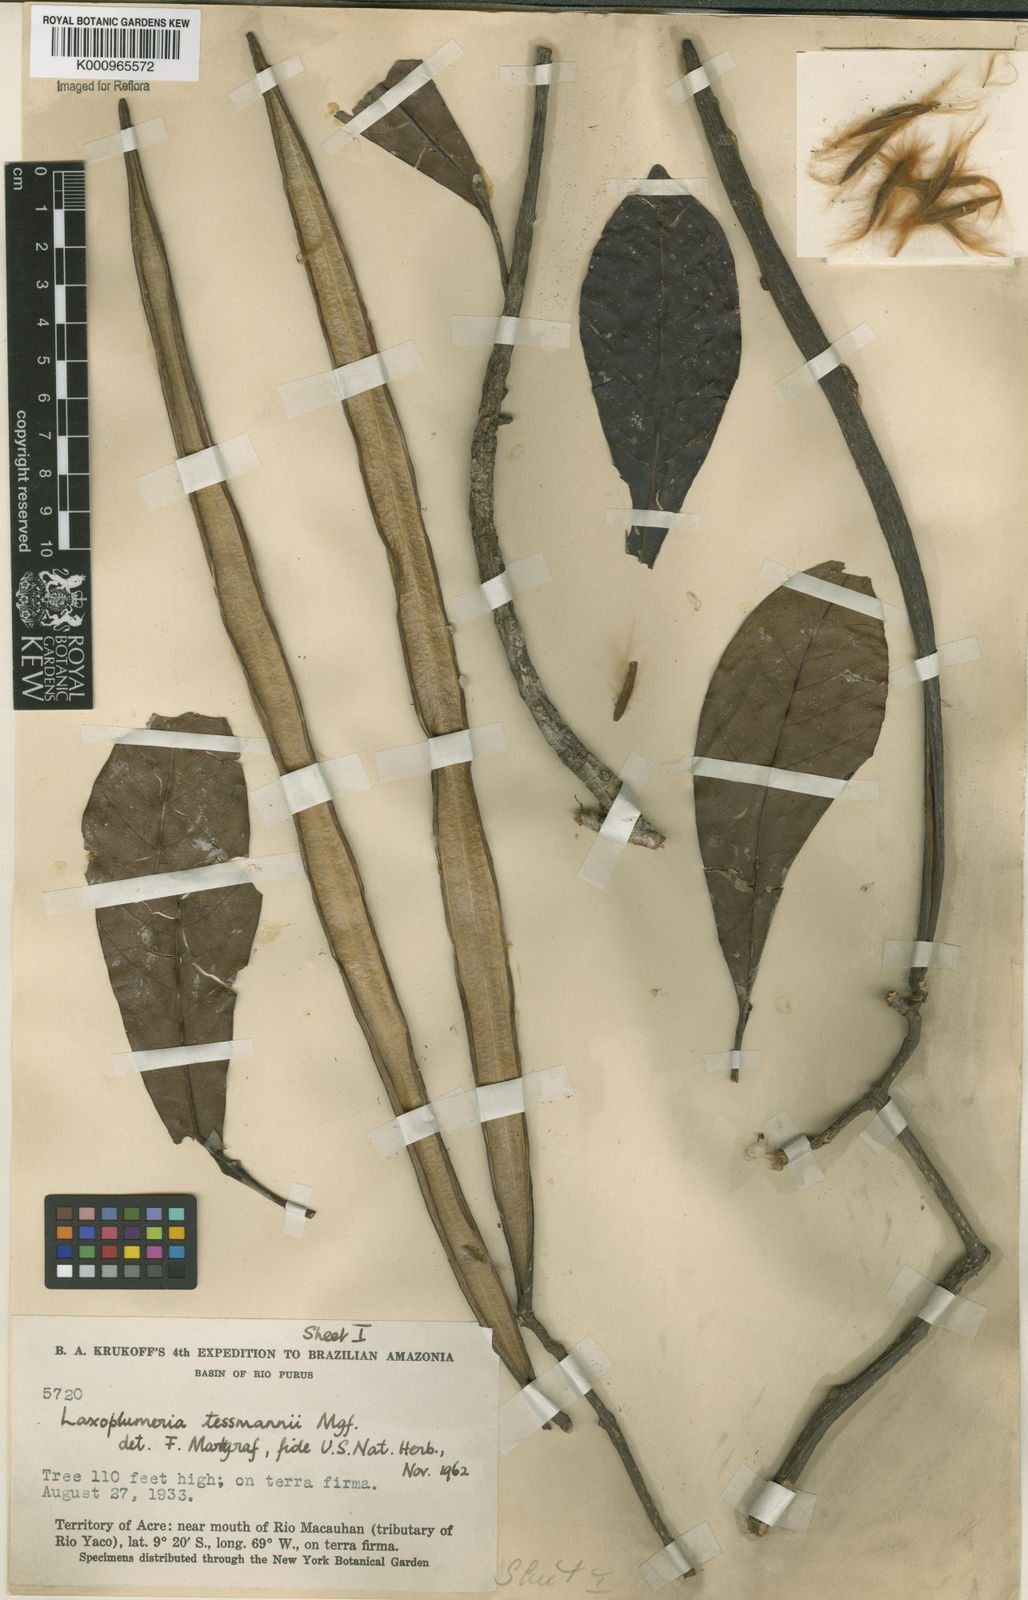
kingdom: Plantae
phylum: Tracheophyta
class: Magnoliopsida
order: Gentianales
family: Apocynaceae
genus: Laxoplumeria
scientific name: Laxoplumeria tessmannii
